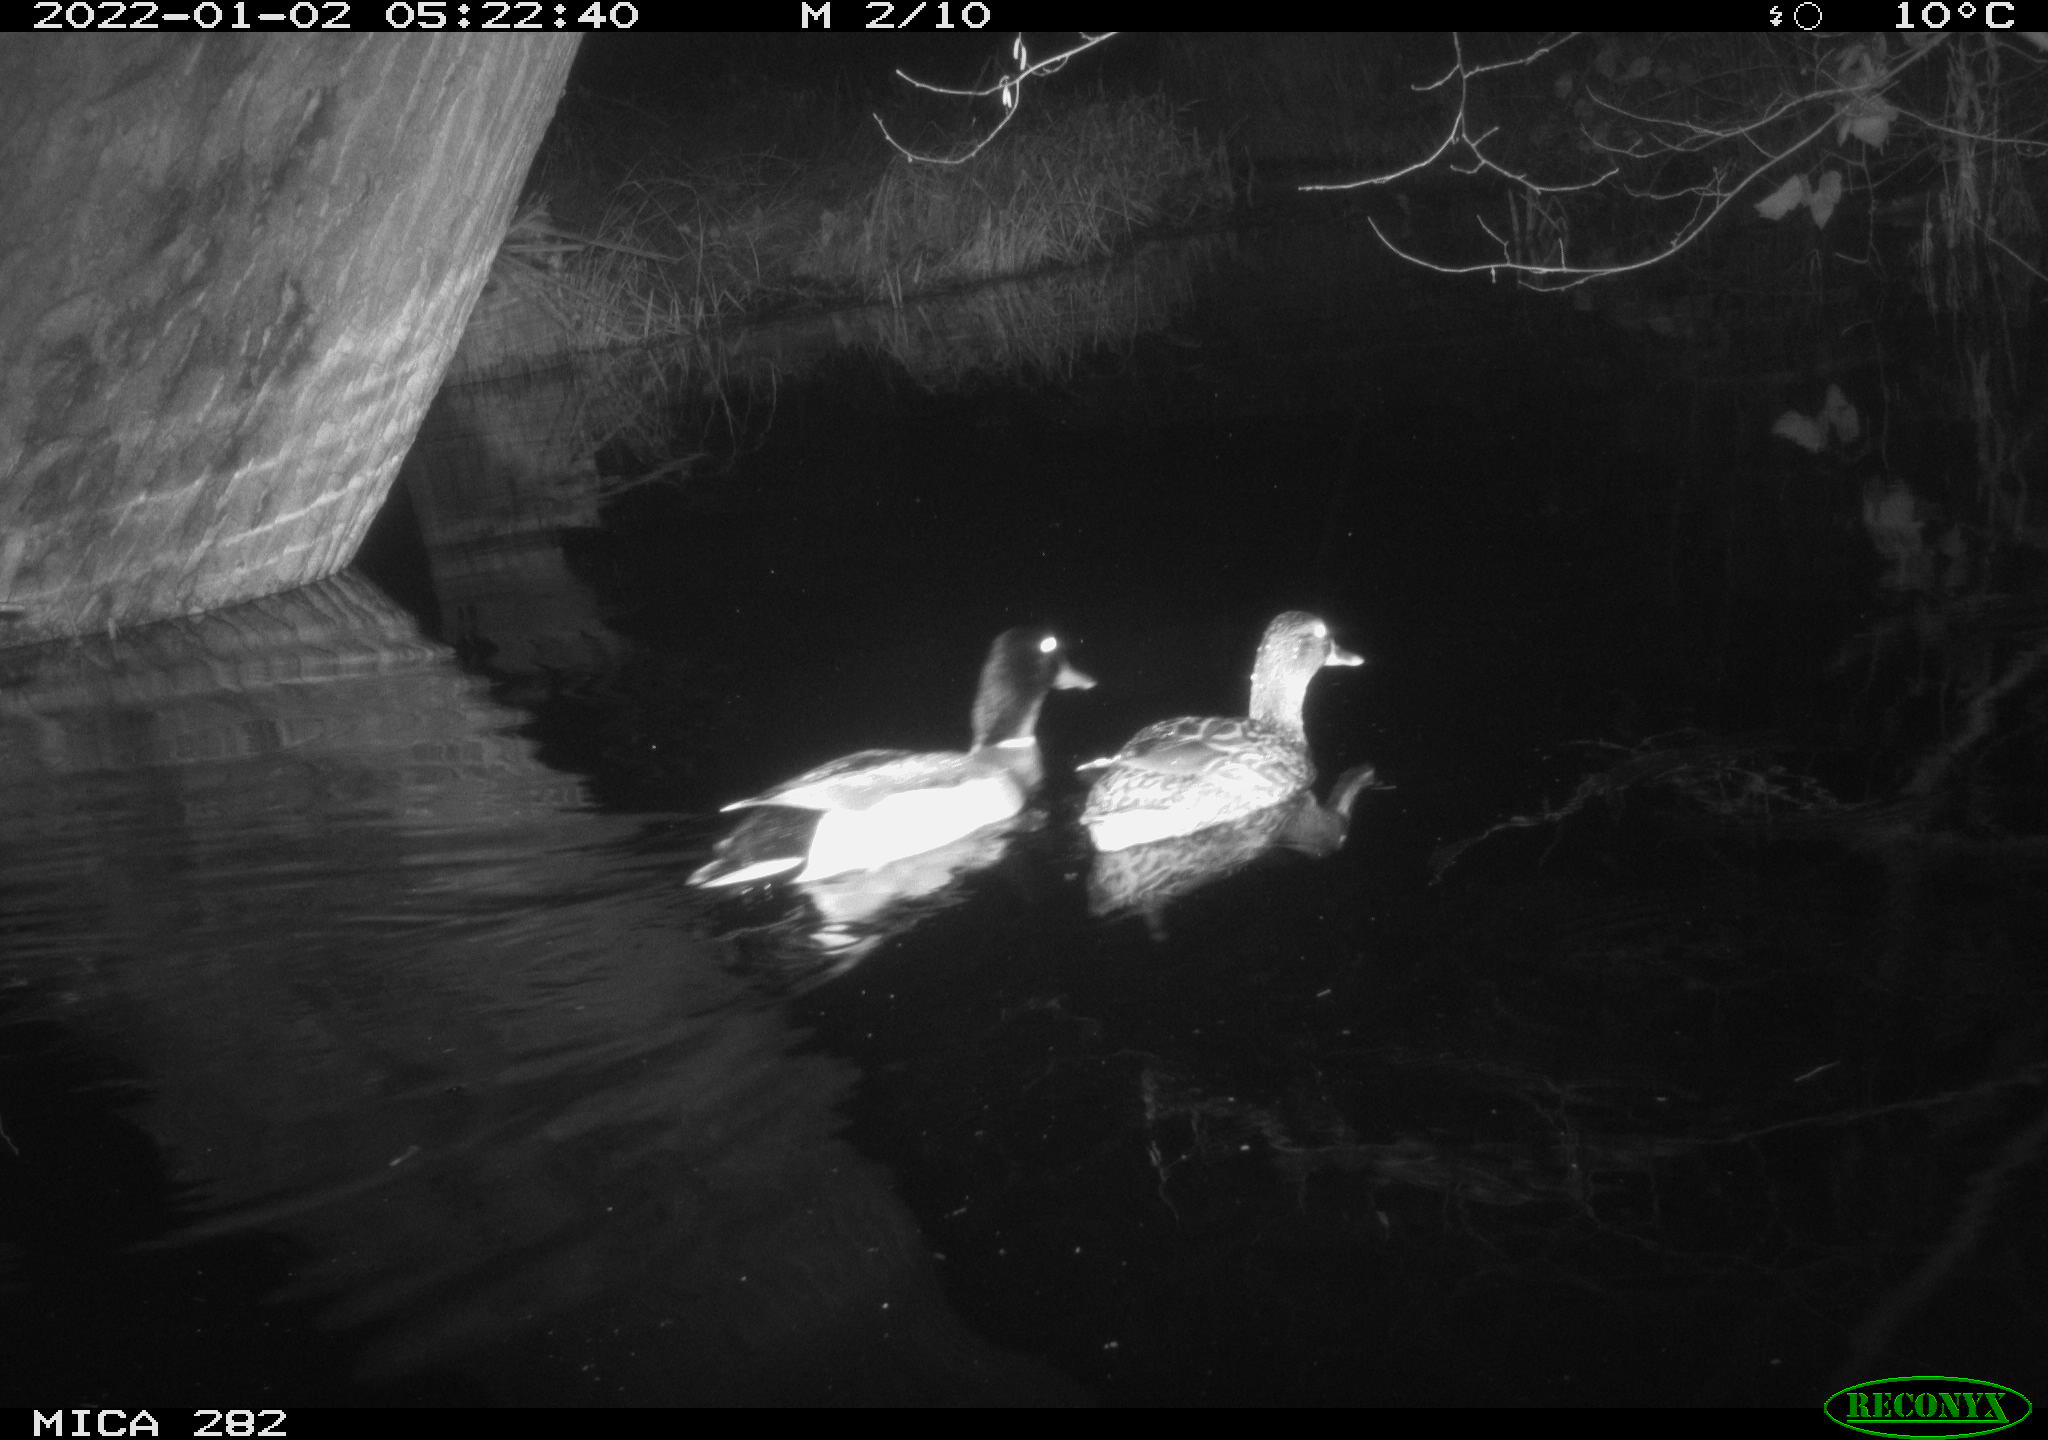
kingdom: Animalia
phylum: Chordata
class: Aves
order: Anseriformes
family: Anatidae
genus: Anas
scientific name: Anas platyrhynchos
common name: Mallard
